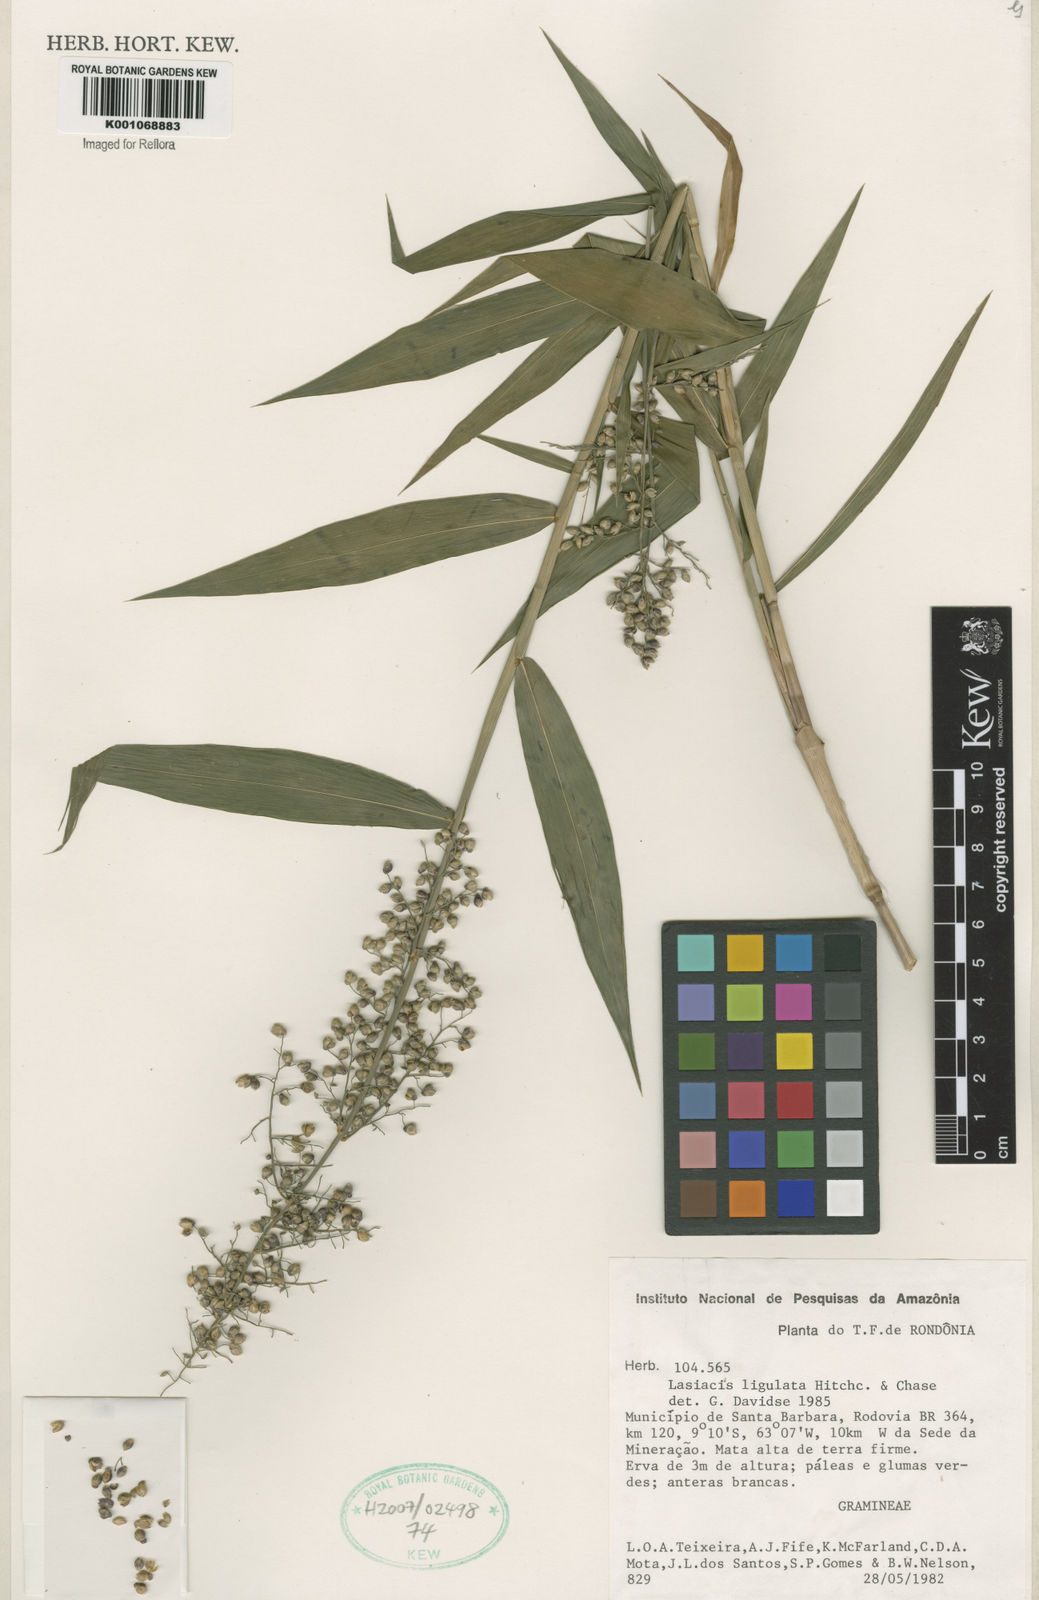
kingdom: Plantae
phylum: Tracheophyta
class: Liliopsida
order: Poales
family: Poaceae
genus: Lasiacis
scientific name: Lasiacis ligulata
